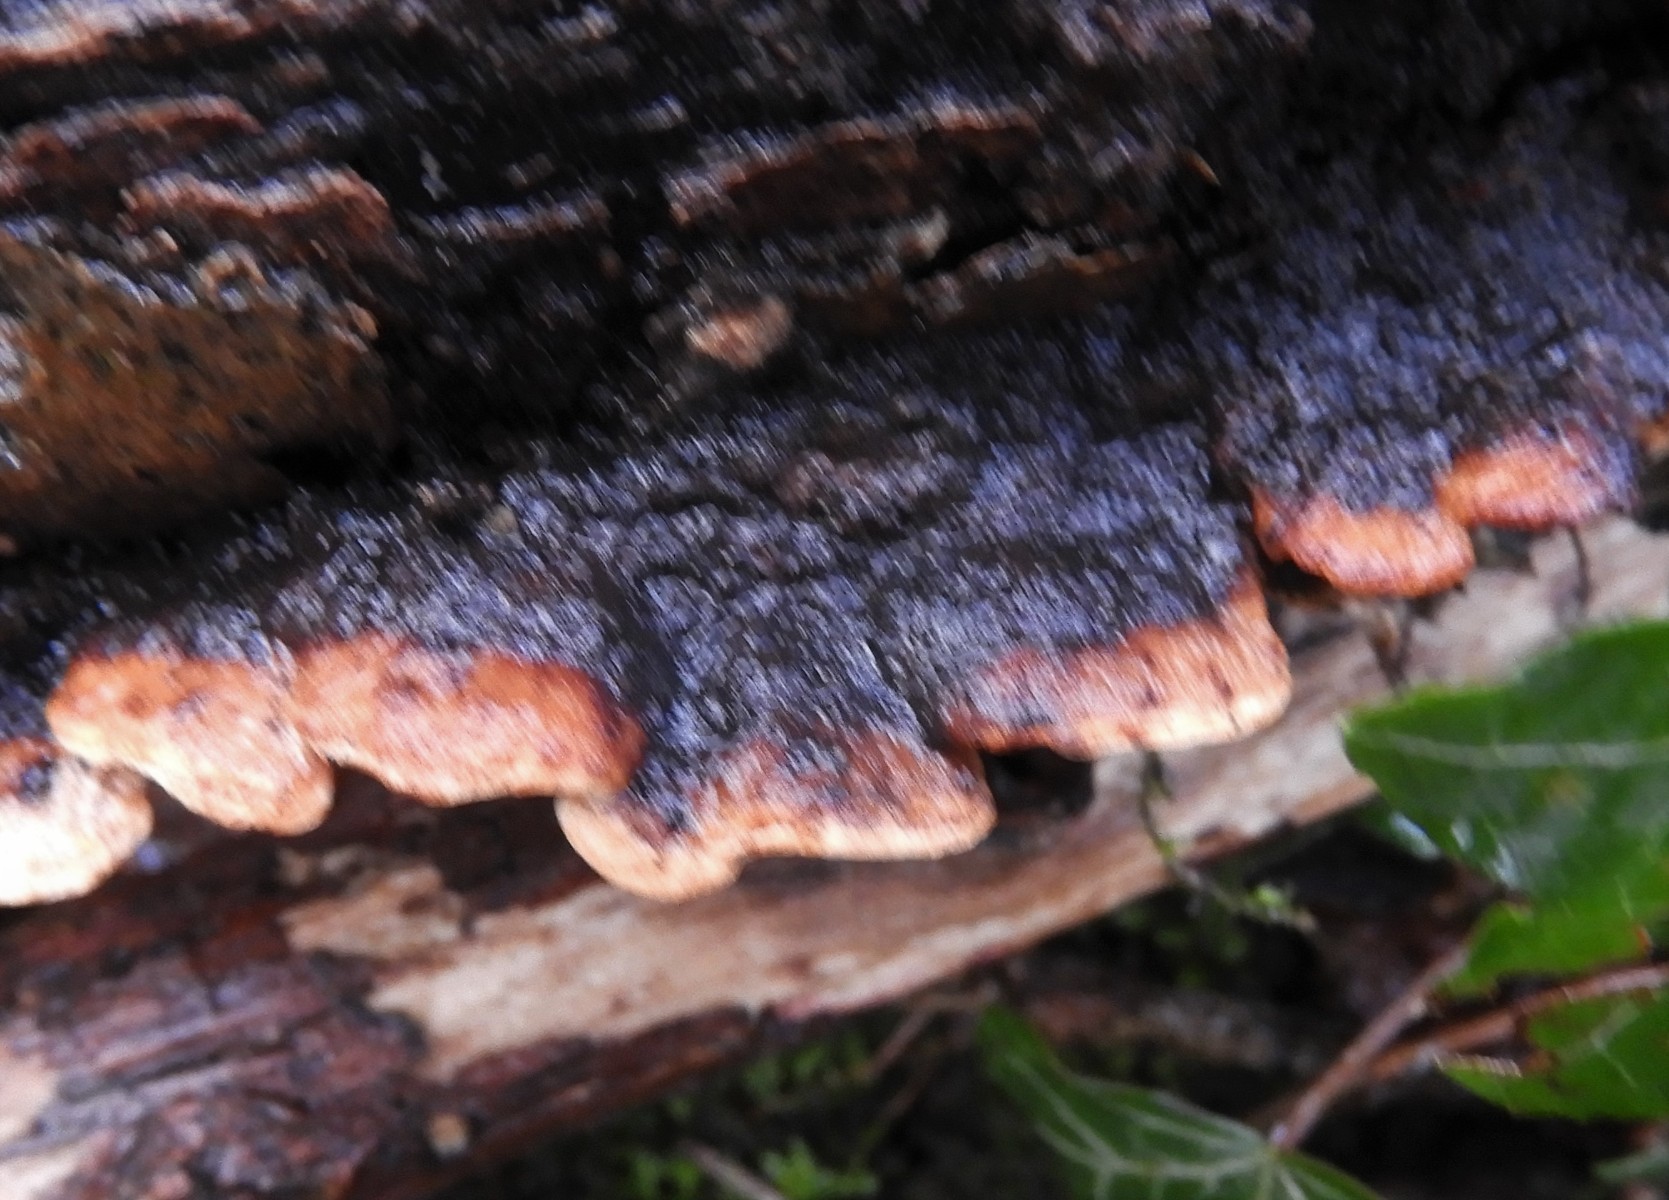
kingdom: Fungi
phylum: Basidiomycota
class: Agaricomycetes
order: Polyporales
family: Incrustoporiaceae
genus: Skeletocutis
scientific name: Skeletocutis nemoralis
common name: stor krystalporesvamp
